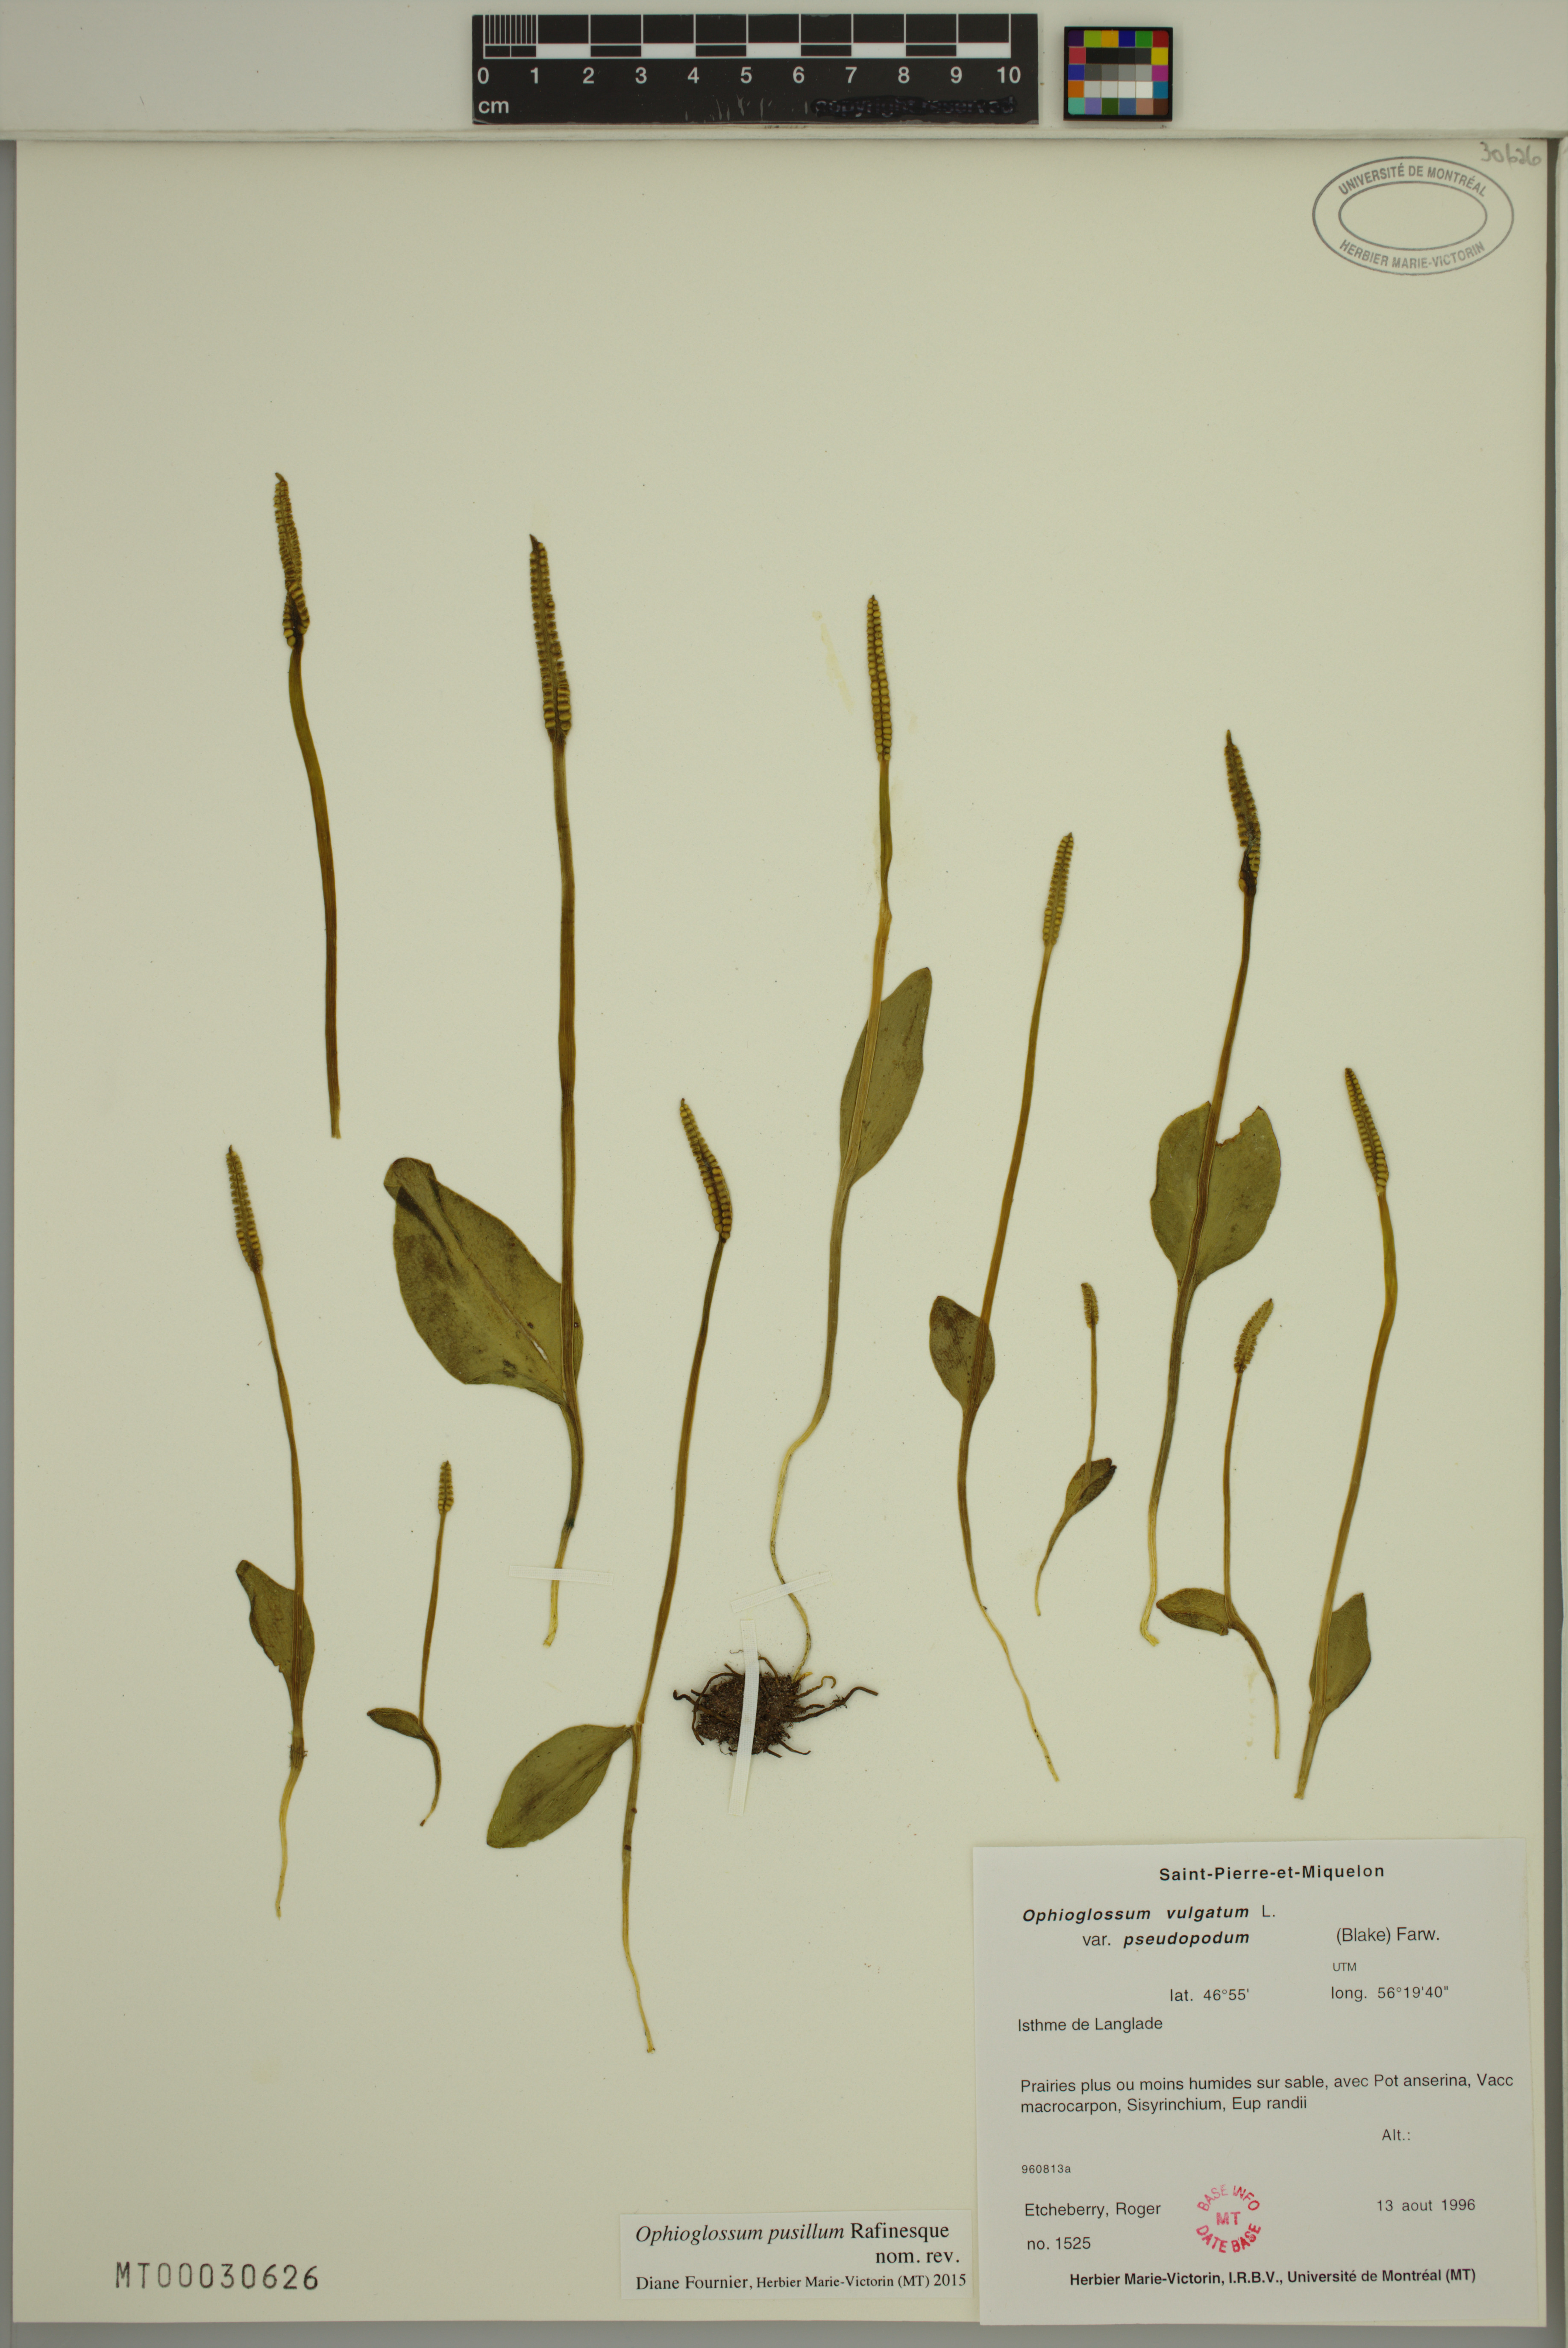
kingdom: Plantae
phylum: Tracheophyta
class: Polypodiopsida
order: Ophioglossales
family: Ophioglossaceae
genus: Ophioglossum
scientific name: Ophioglossum pusillum
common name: Northern adder's-tongue
